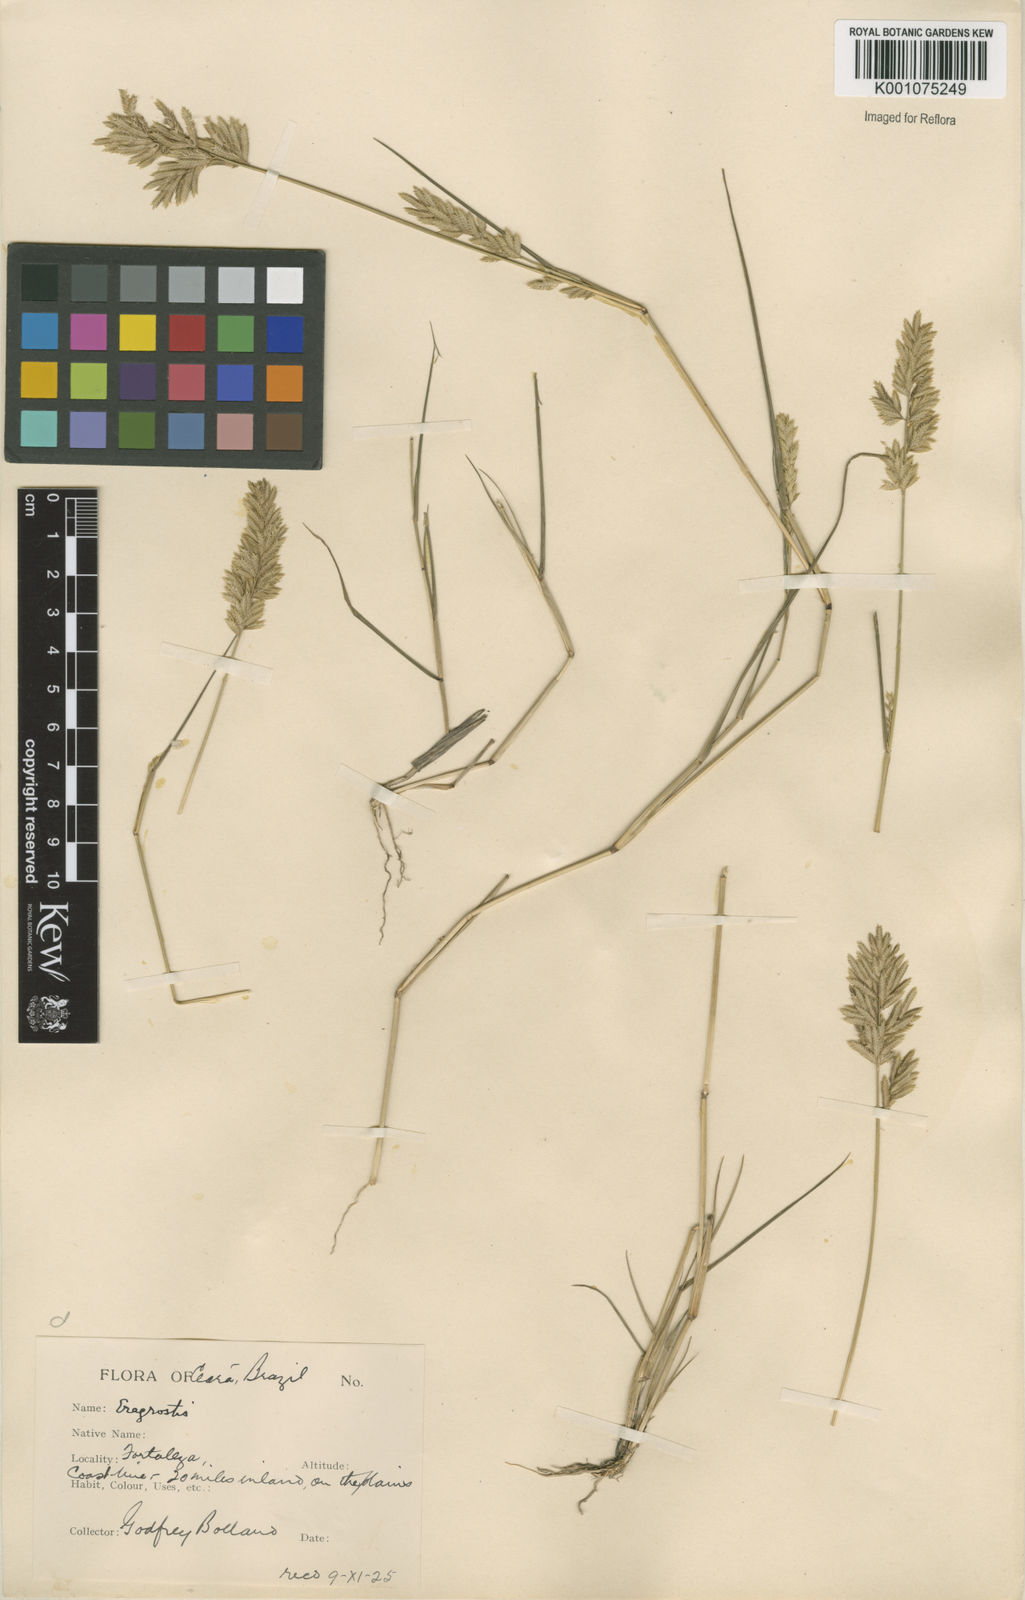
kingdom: Plantae
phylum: Tracheophyta
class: Liliopsida
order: Poales
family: Poaceae
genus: Eragrostis
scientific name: Eragrostis secundiflora
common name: Red love grass
